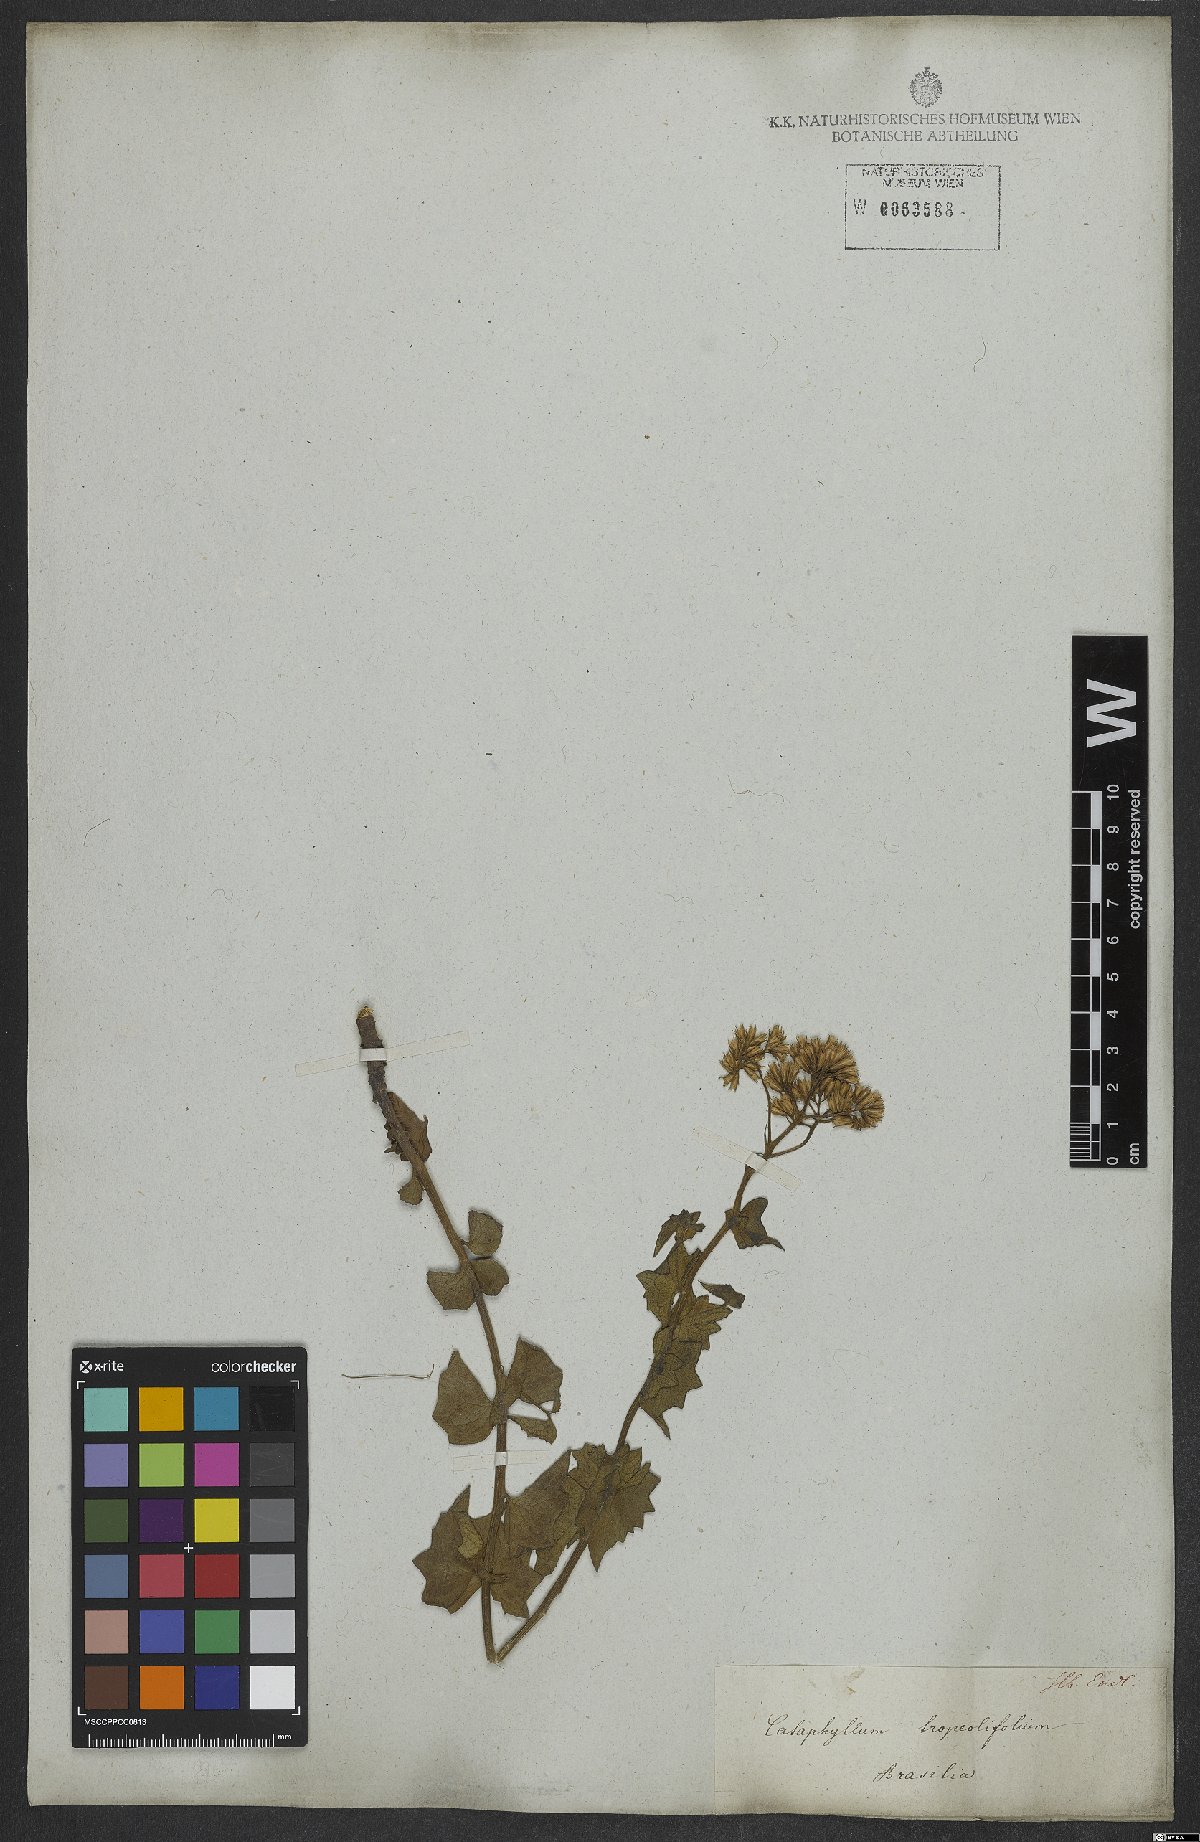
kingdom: Plantae
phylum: Tracheophyta
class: Magnoliopsida
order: Asterales
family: Asteraceae
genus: Mikania
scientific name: Mikania officinalis
